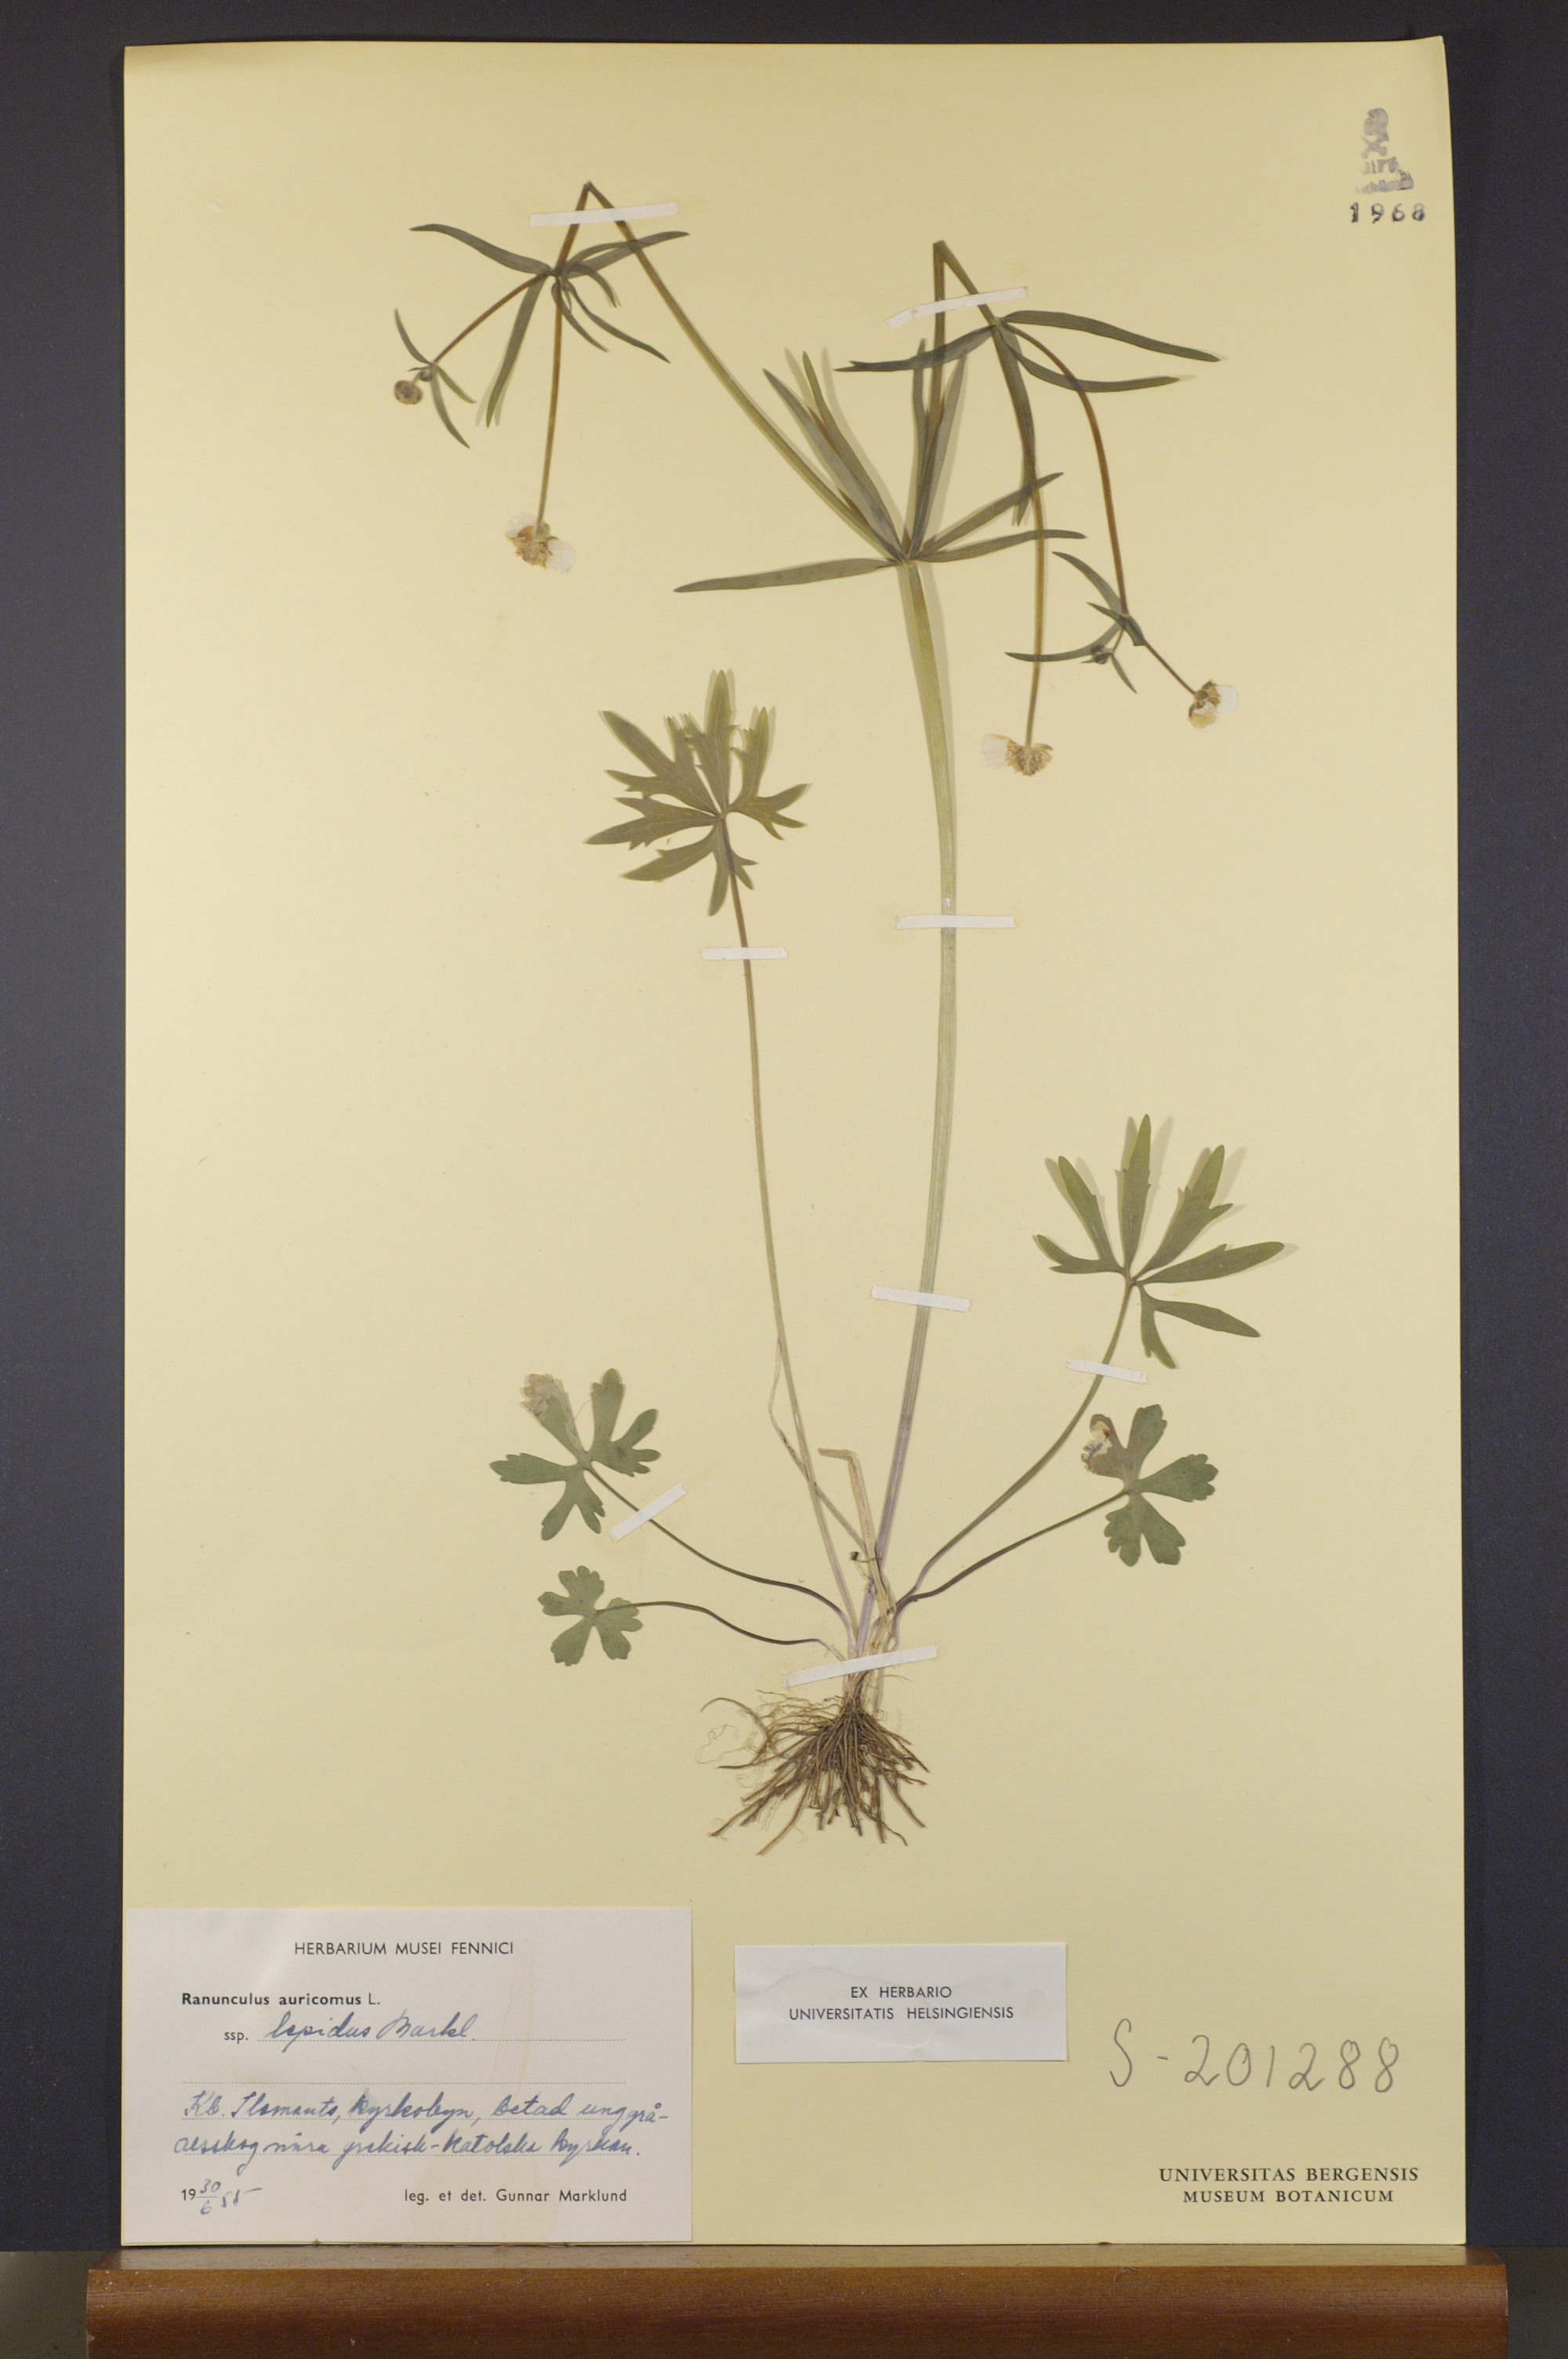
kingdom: Plantae
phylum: Tracheophyta
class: Magnoliopsida
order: Ranunculales
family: Ranunculaceae
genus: Ranunculus
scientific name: Ranunculus lepidus
